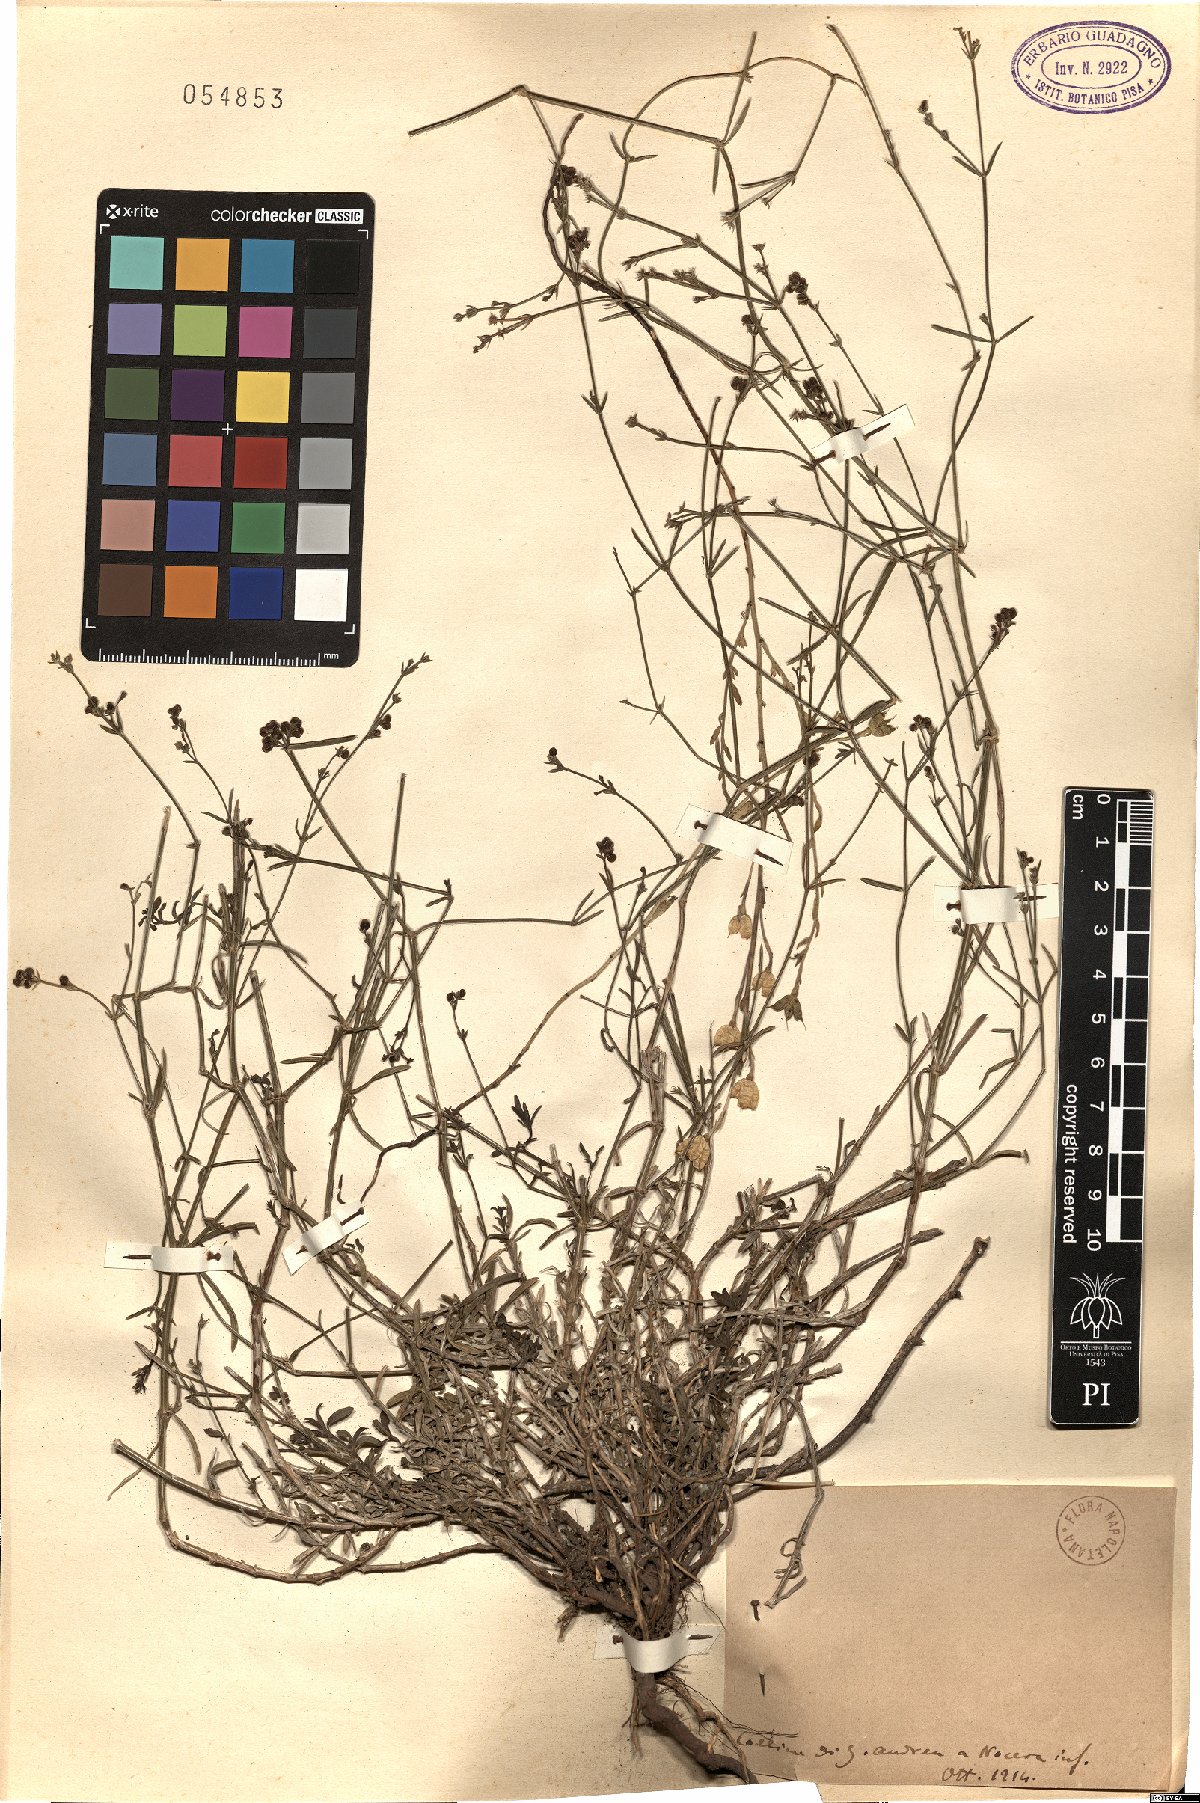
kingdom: Plantae
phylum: Tracheophyta
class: Magnoliopsida
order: Gentianales
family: Rubiaceae
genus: Asperula
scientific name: Asperula
